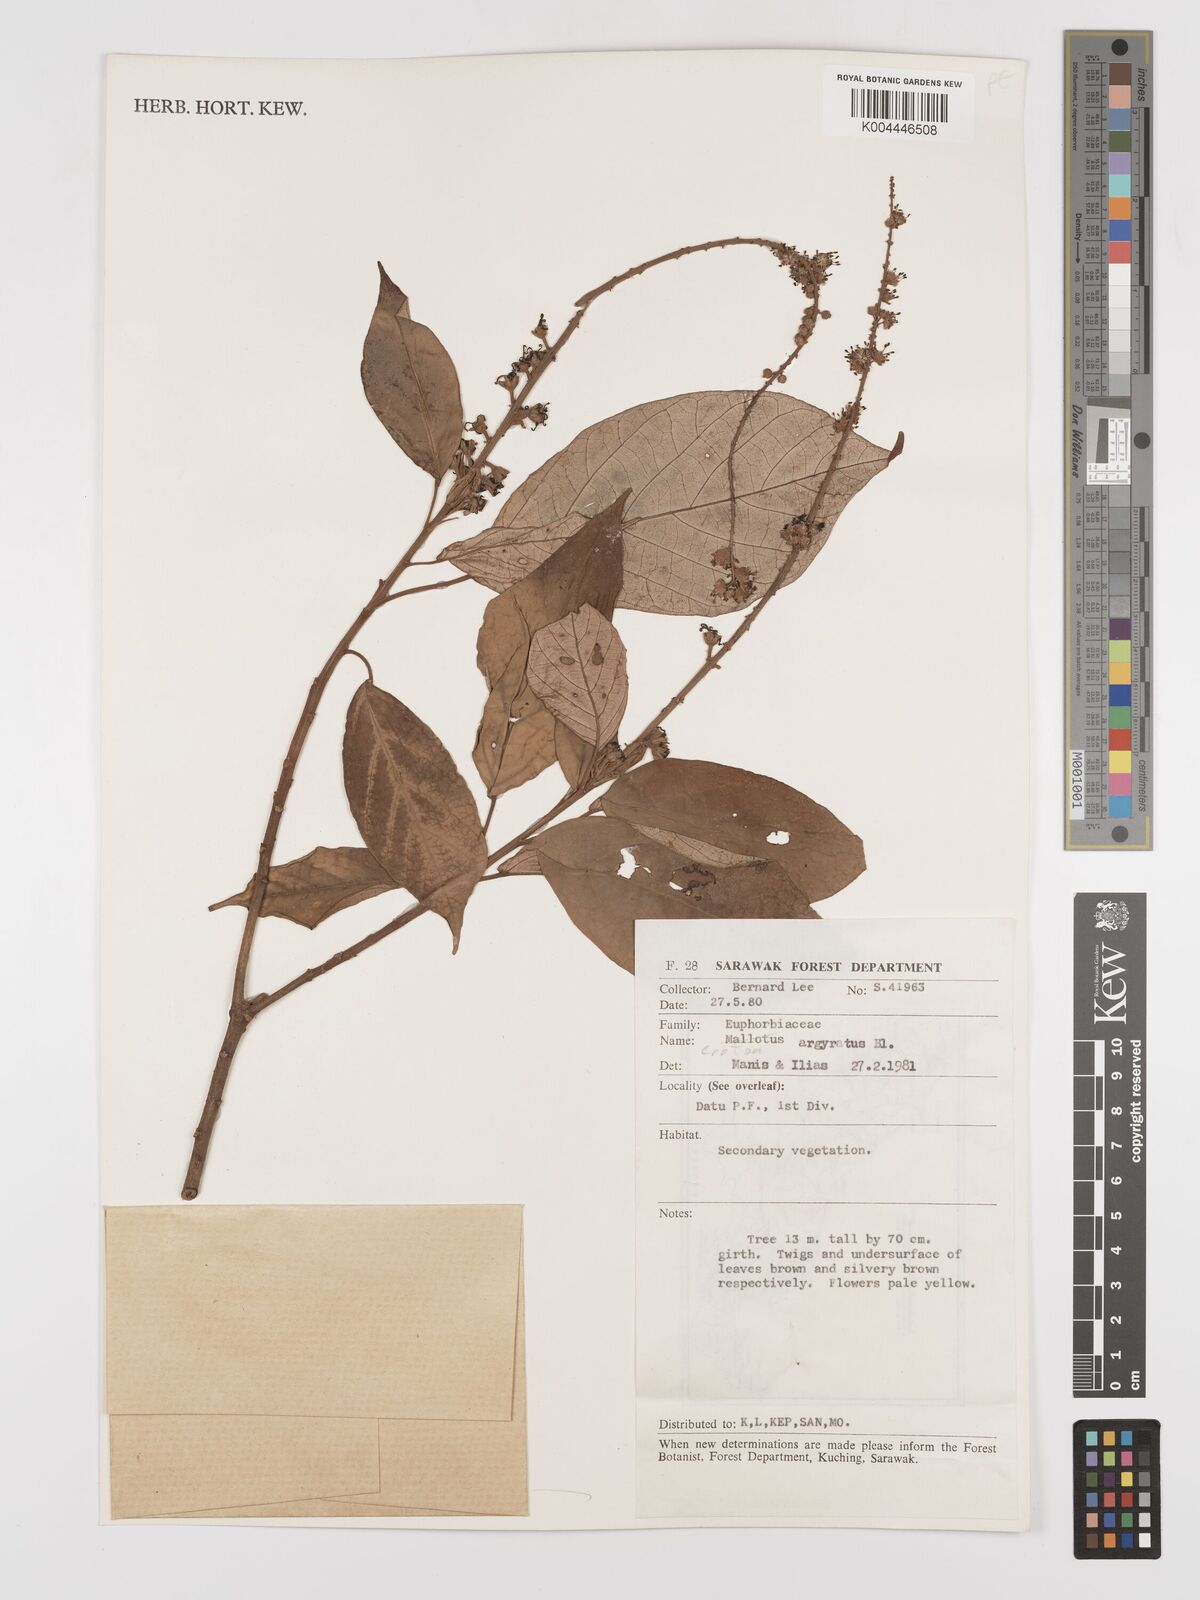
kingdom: Plantae
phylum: Tracheophyta
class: Magnoliopsida
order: Malpighiales
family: Euphorbiaceae
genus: Croton
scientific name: Croton argyratus
